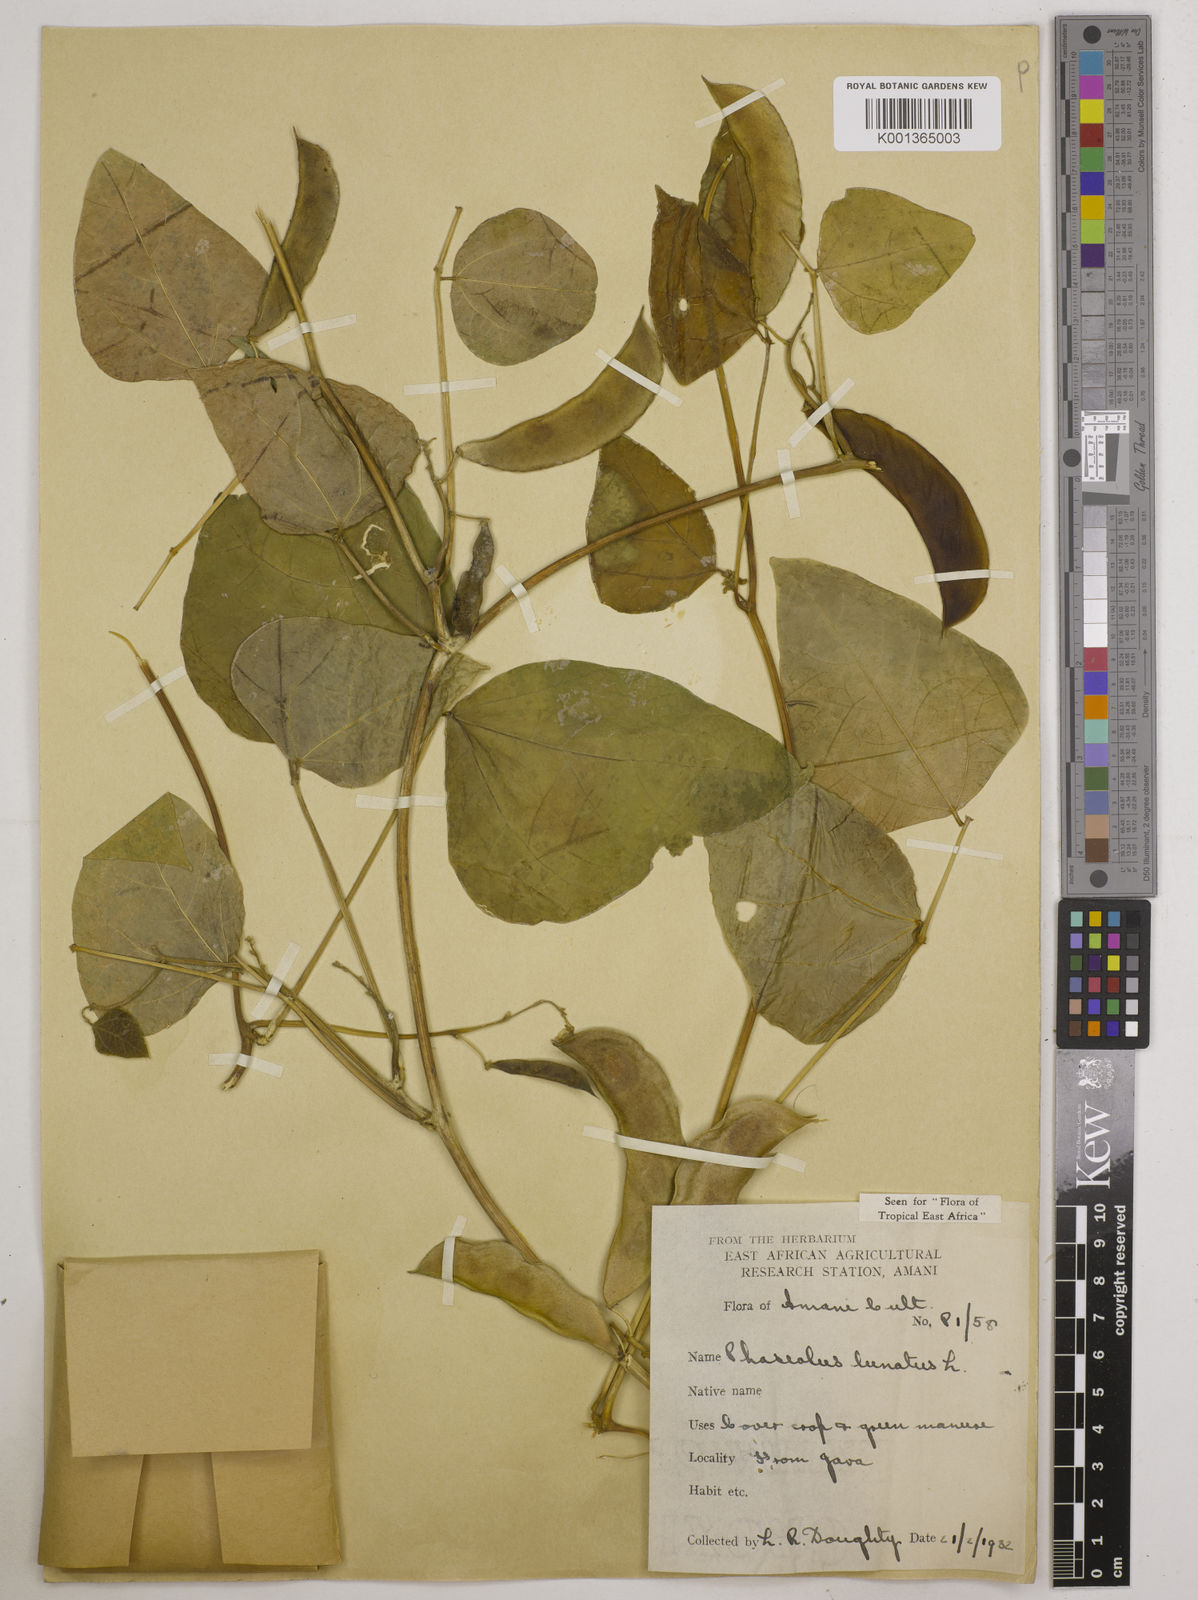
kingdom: Plantae
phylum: Tracheophyta
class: Magnoliopsida
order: Fabales
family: Fabaceae
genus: Phaseolus
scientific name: Phaseolus lunatus
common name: Sieva bean
